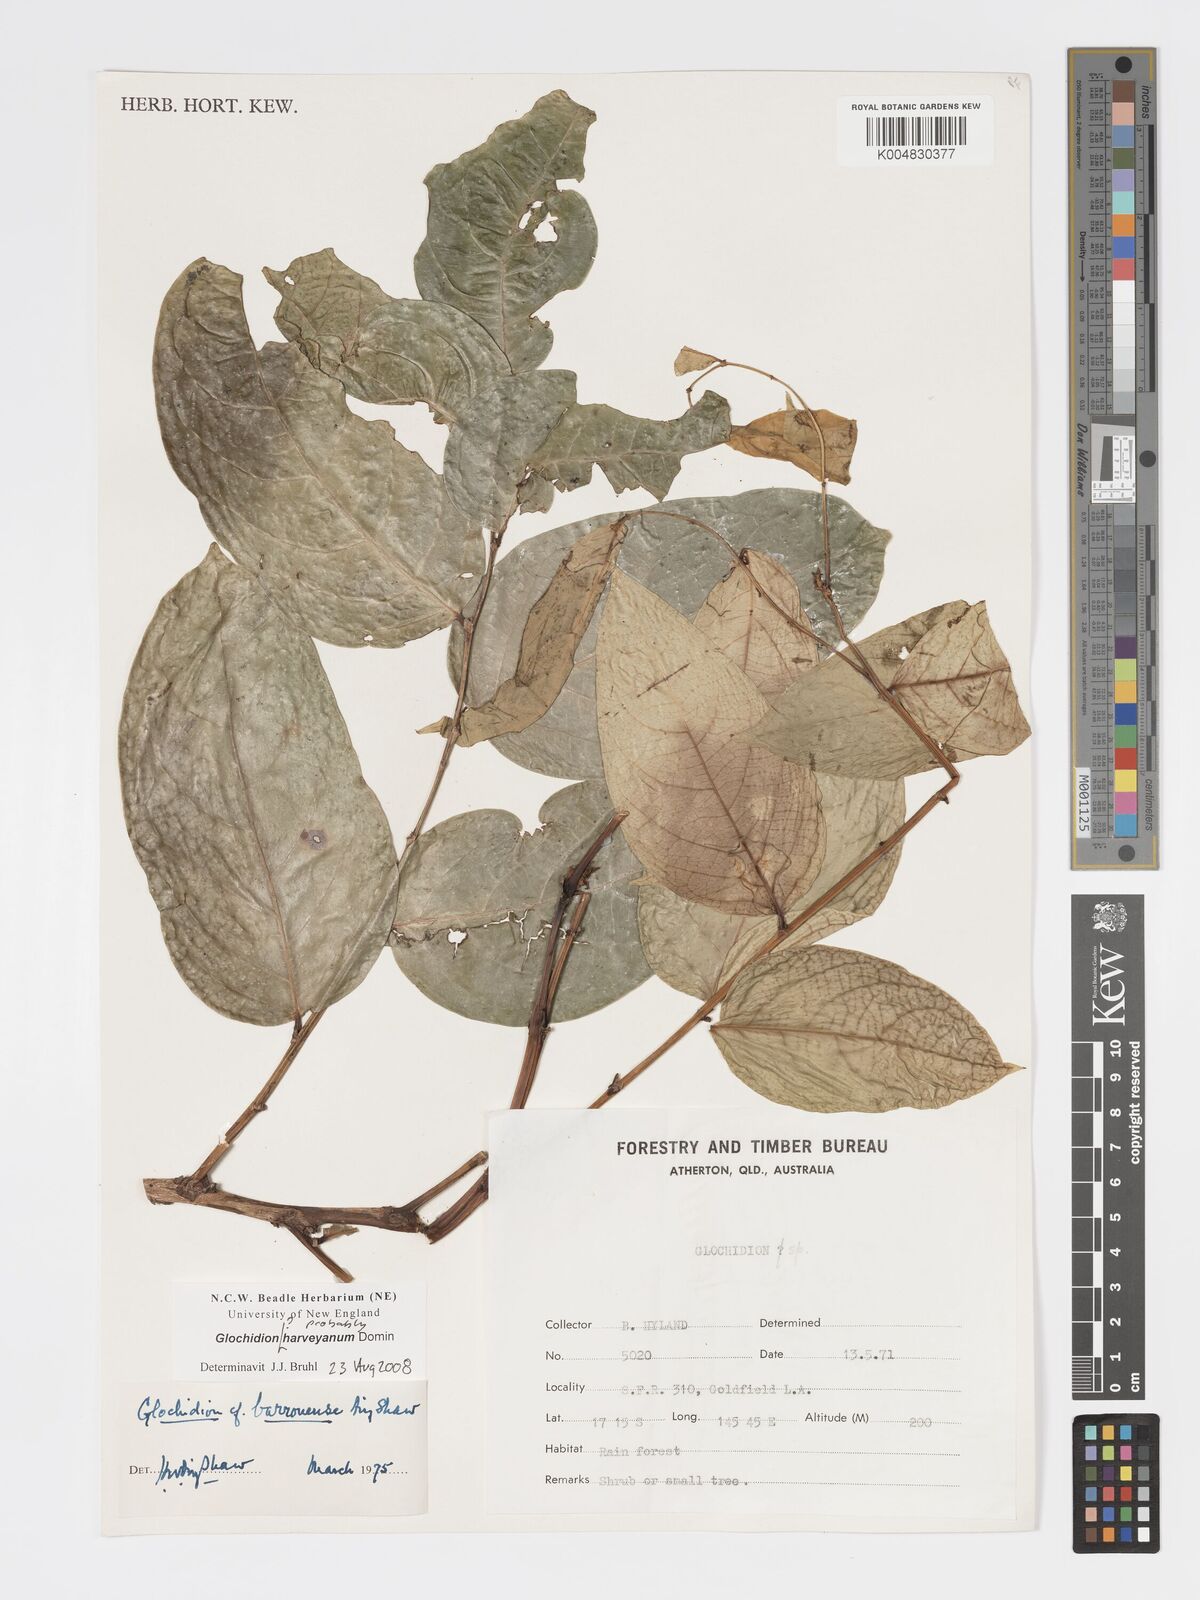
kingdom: Plantae
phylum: Tracheophyta
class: Magnoliopsida
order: Malpighiales
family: Phyllanthaceae
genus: Glochidion
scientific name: Glochidion harveyanum
